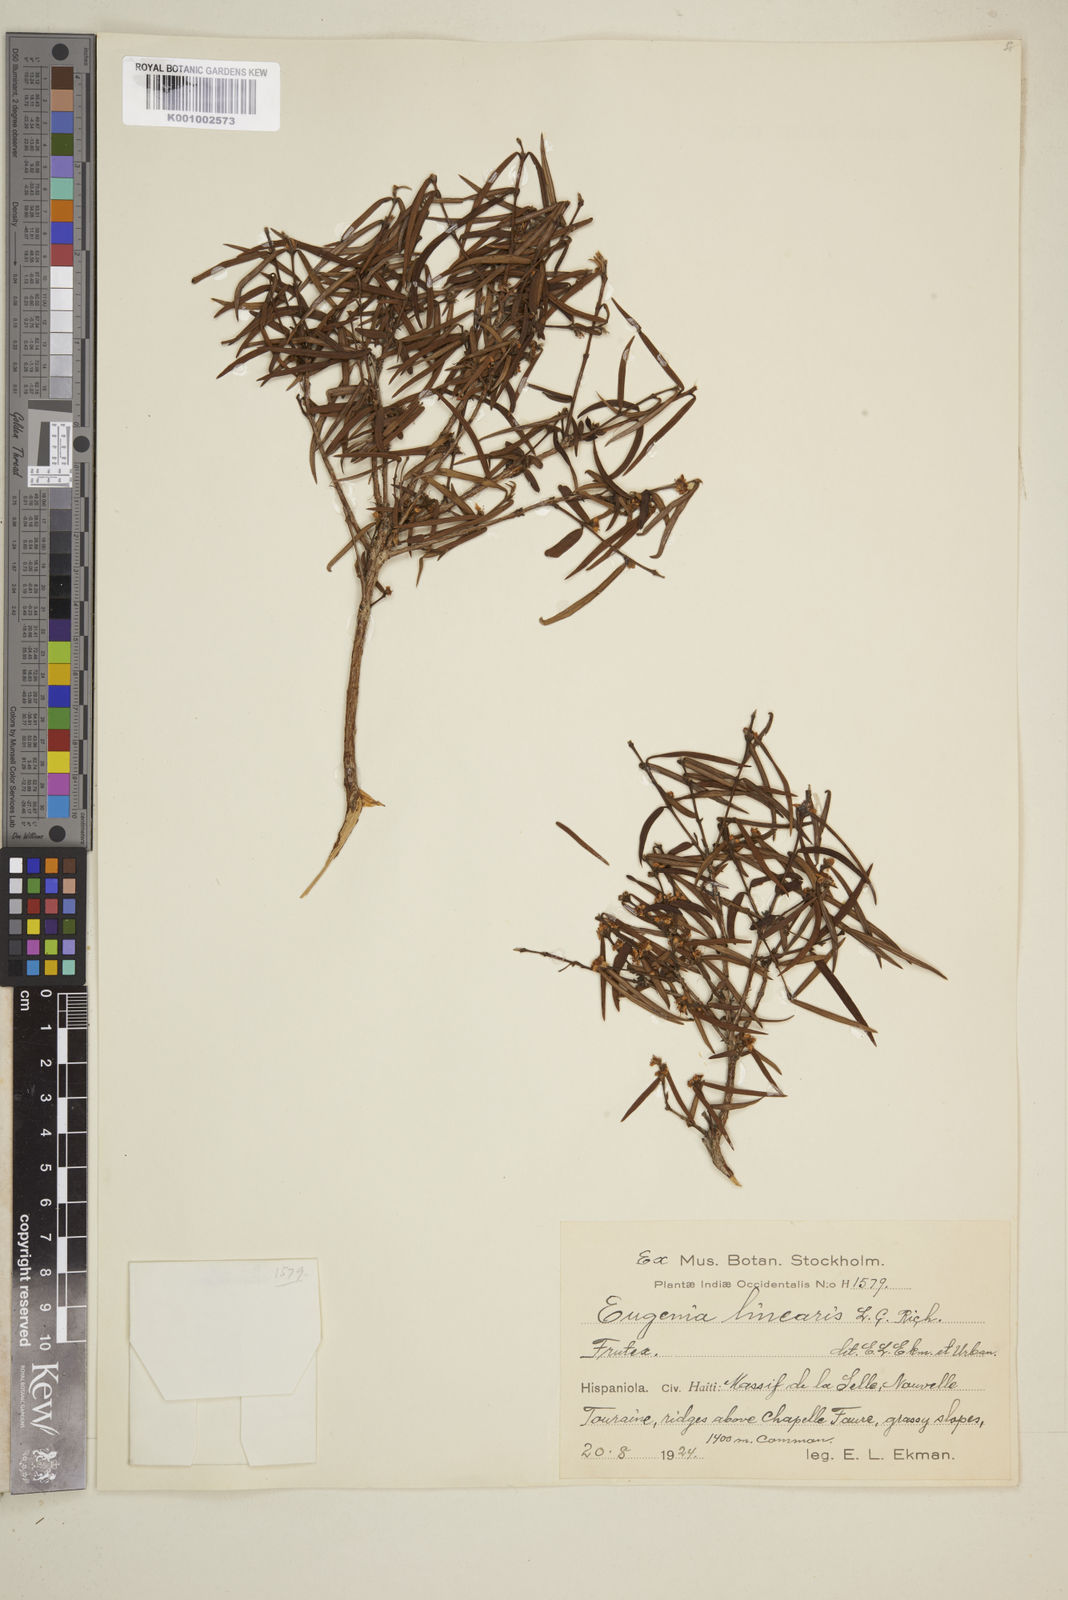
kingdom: Plantae
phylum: Tracheophyta
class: Magnoliopsida
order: Myrtales
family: Myrtaceae
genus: Eugenia
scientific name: Eugenia linearis
